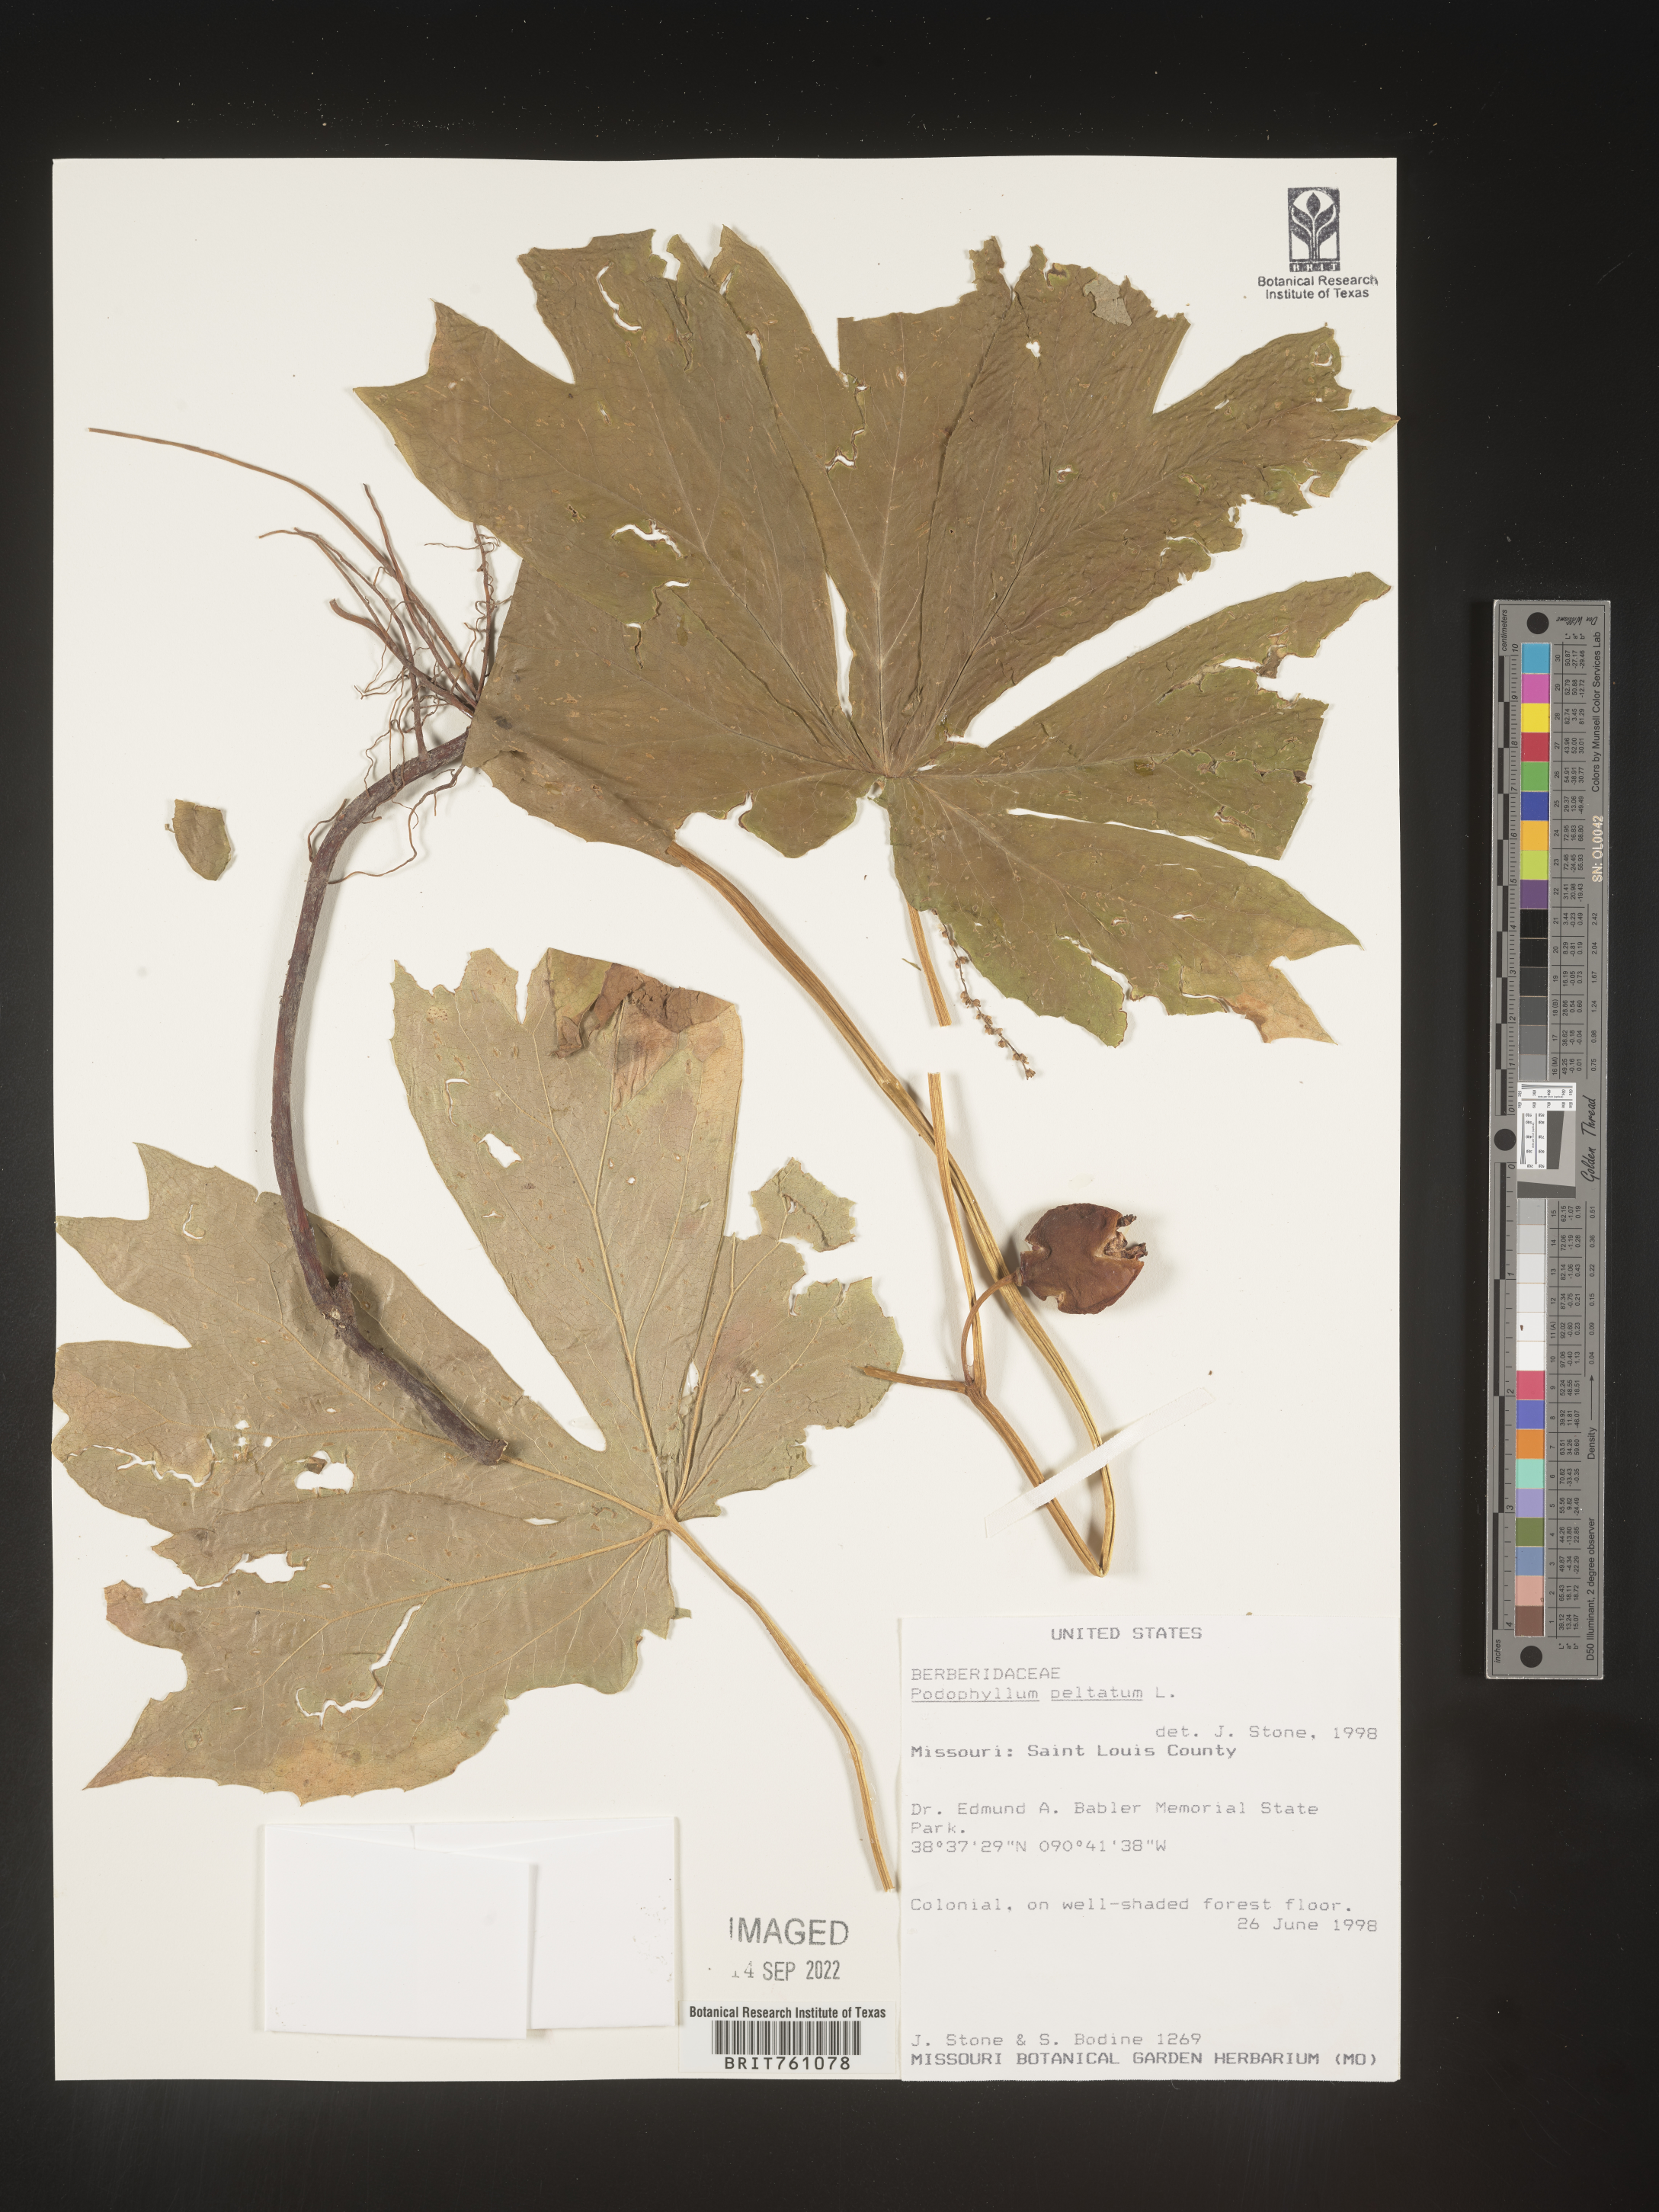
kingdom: Plantae
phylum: Tracheophyta
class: Magnoliopsida
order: Ranunculales
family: Berberidaceae
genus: Podophyllum
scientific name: Podophyllum peltatum
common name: Wild mandrake
